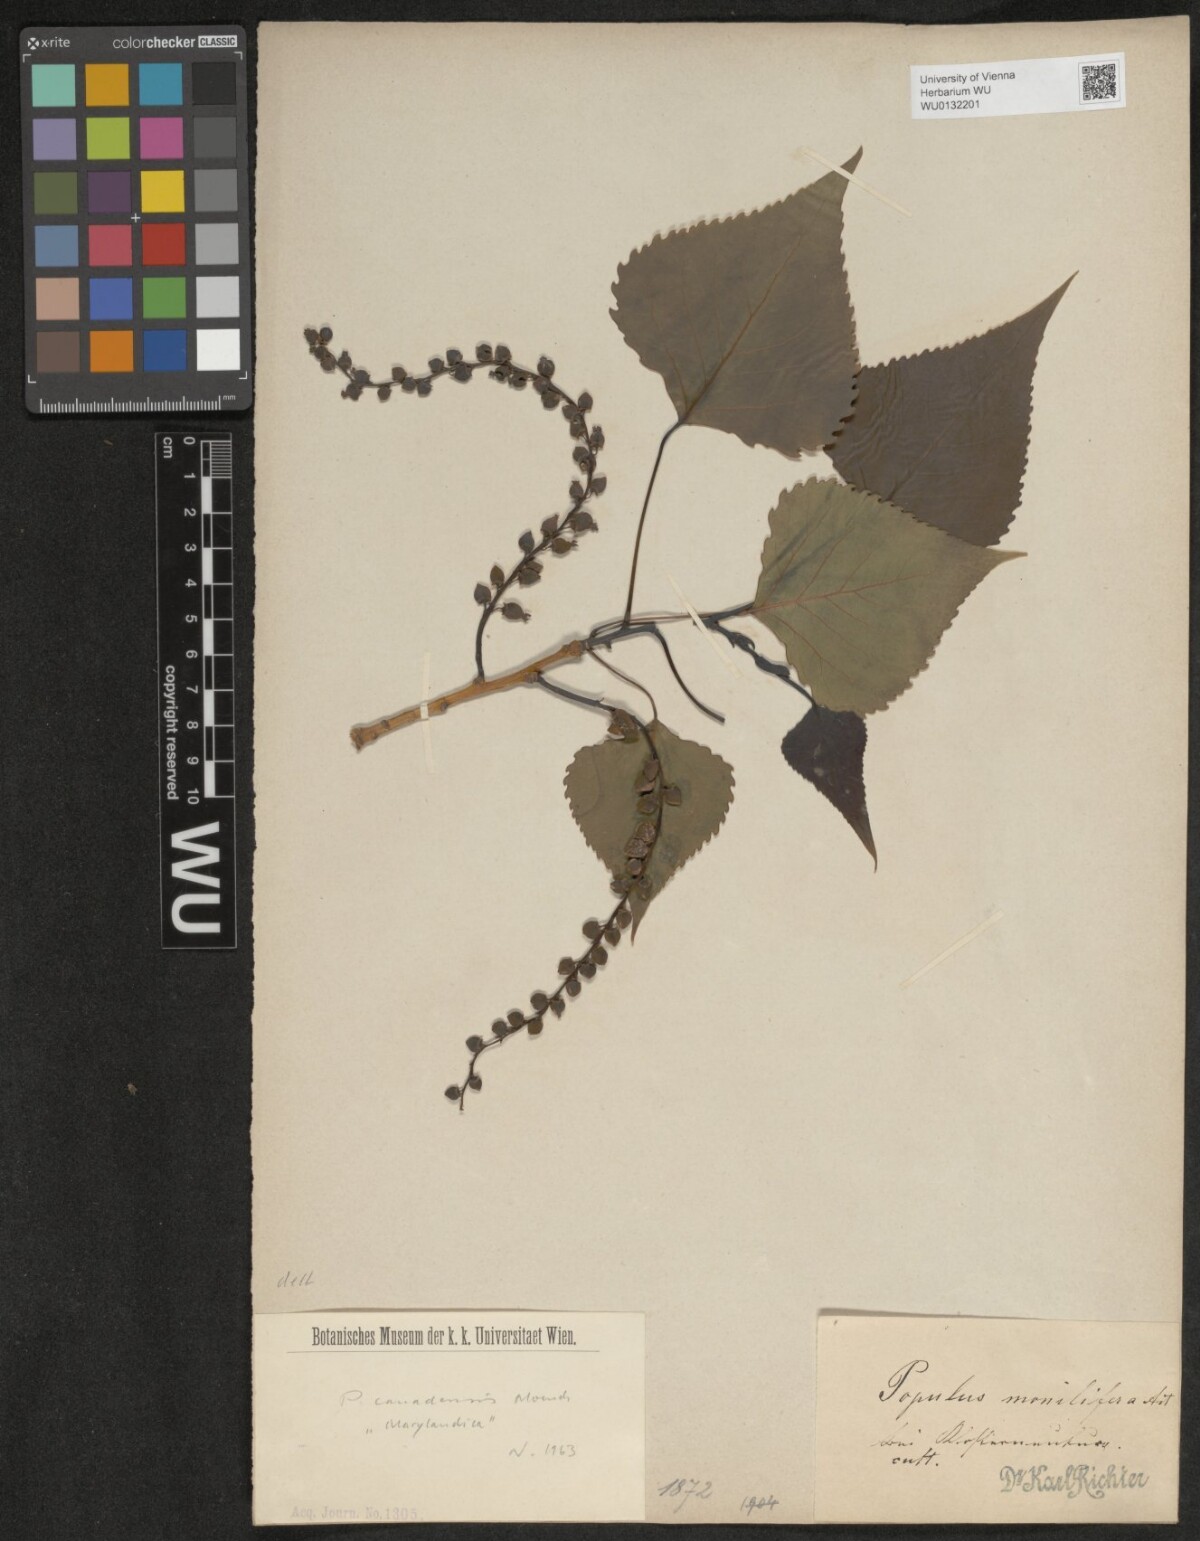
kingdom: Plantae
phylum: Tracheophyta
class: Magnoliopsida
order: Malpighiales
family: Salicaceae
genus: Populus
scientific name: Populus canadensis
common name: Carolina poplar
